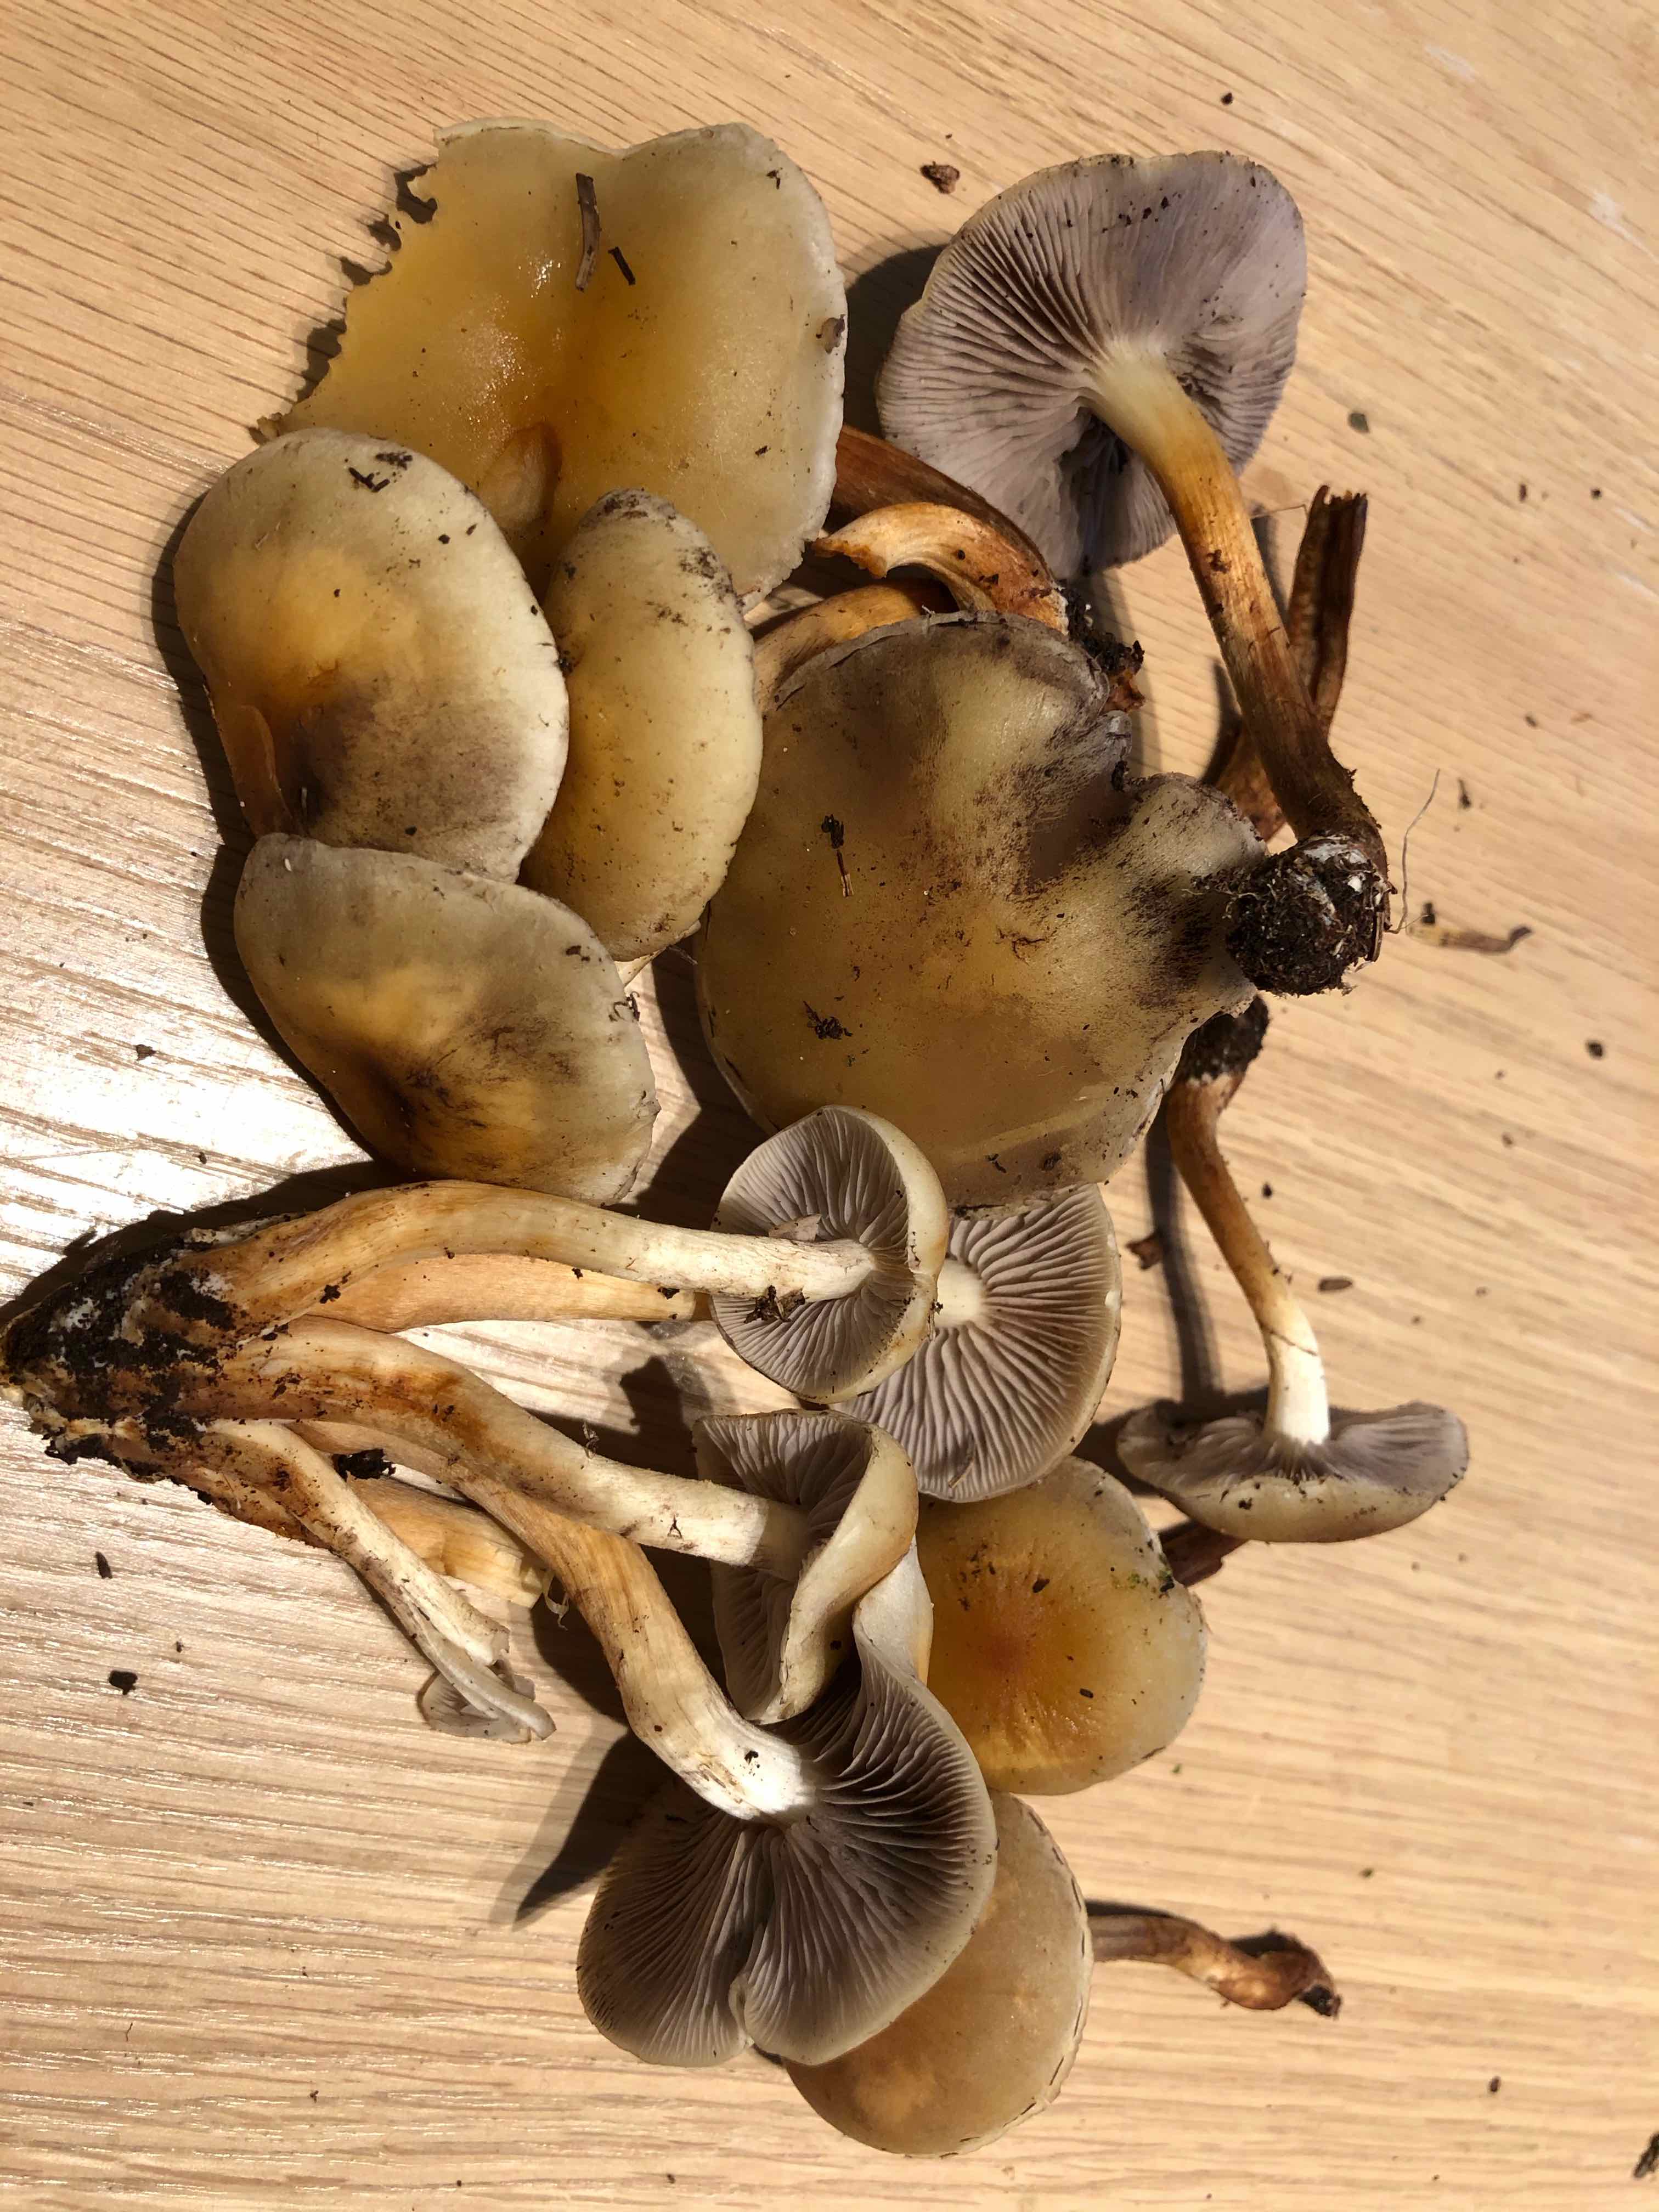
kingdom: Fungi
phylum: Basidiomycota
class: Agaricomycetes
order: Agaricales
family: Strophariaceae
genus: Hypholoma
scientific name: Hypholoma capnoides
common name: gran-svovlhat
